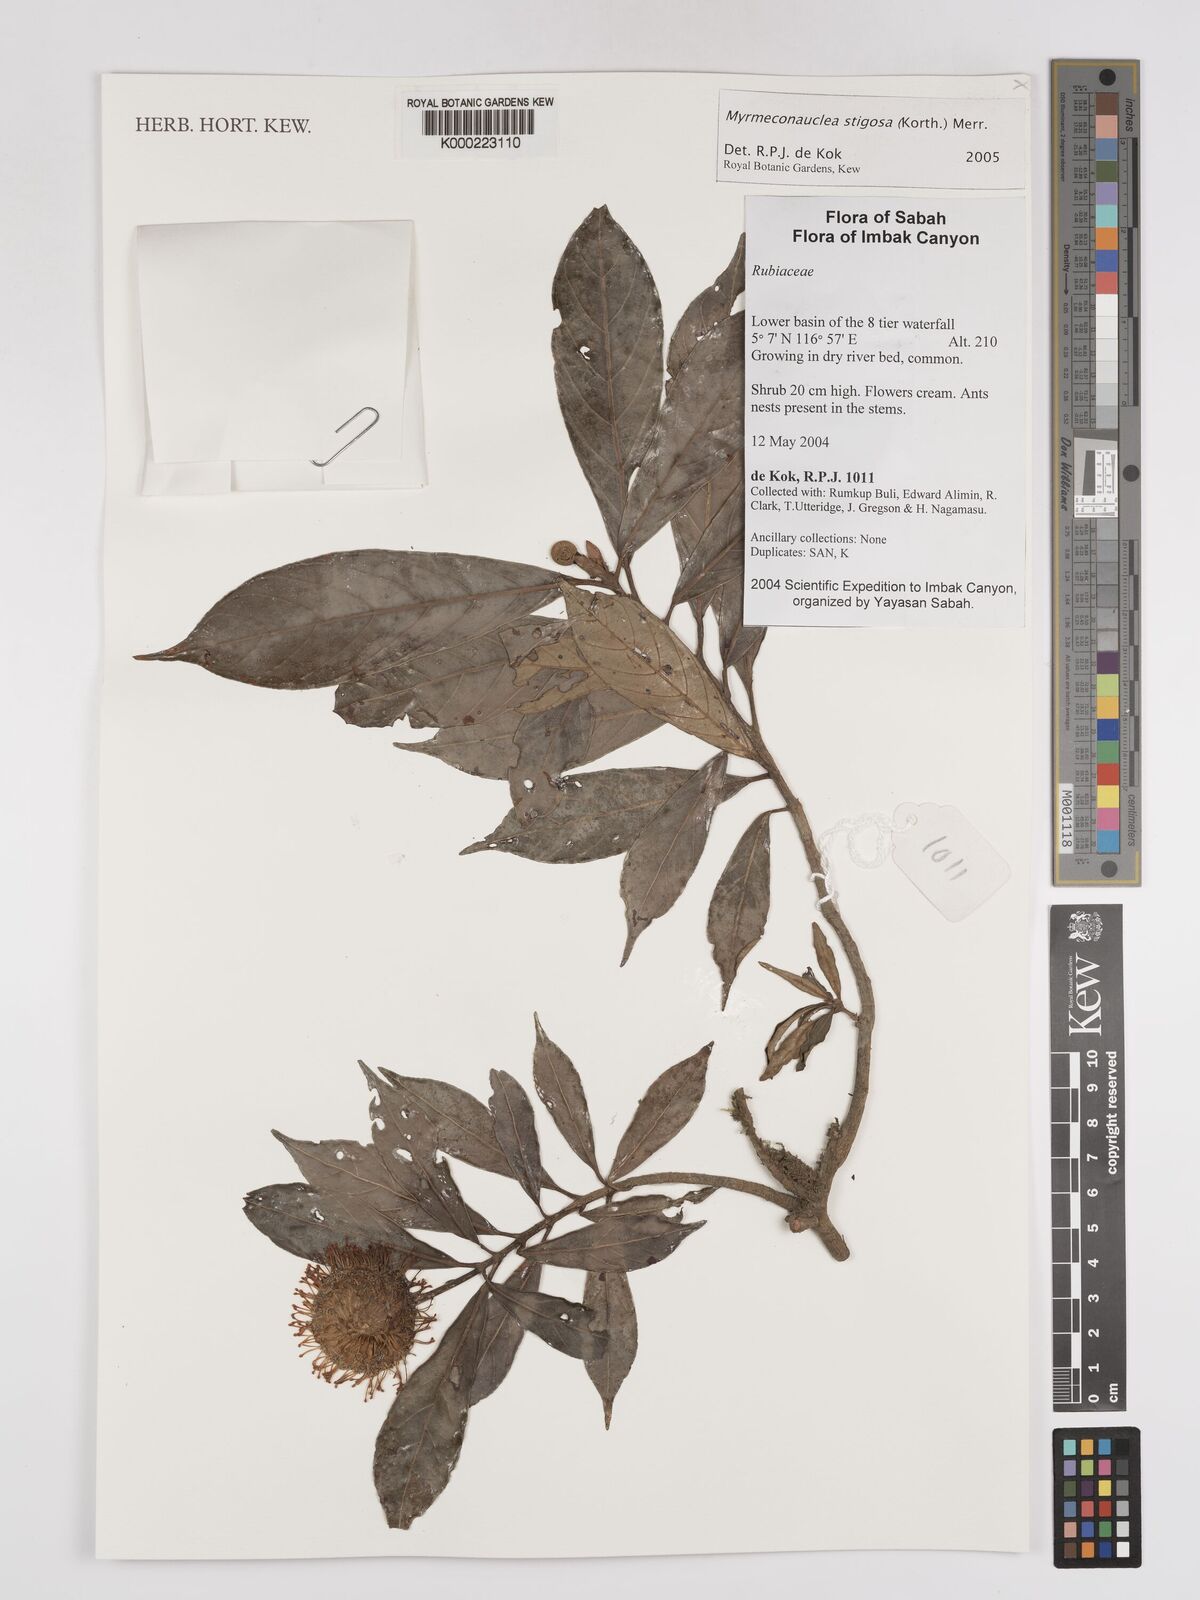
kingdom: Plantae
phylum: Tracheophyta
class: Magnoliopsida
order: Gentianales
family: Rubiaceae
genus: Myrmeconauclea
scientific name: Myrmeconauclea
